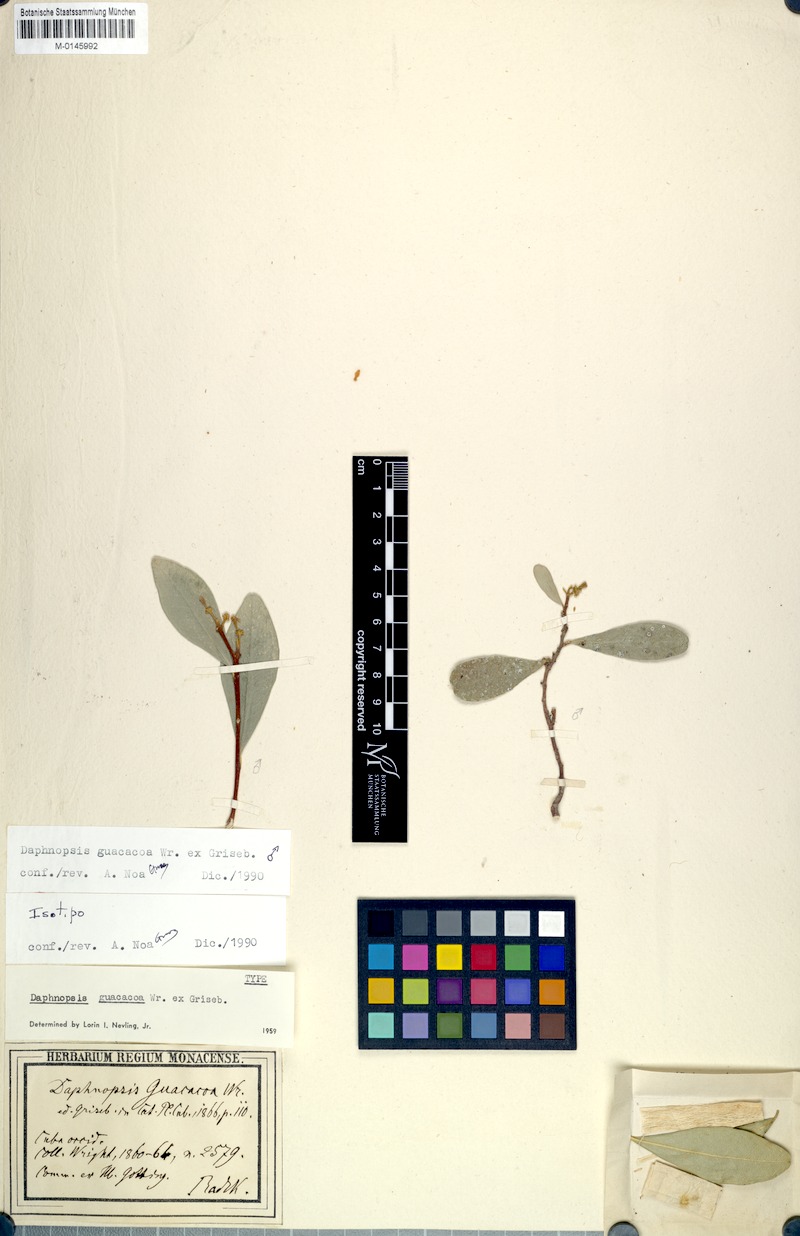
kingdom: Plantae
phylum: Tracheophyta
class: Magnoliopsida
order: Malvales
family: Thymelaeaceae
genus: Daphnopsis
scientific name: Daphnopsis guacacoa
